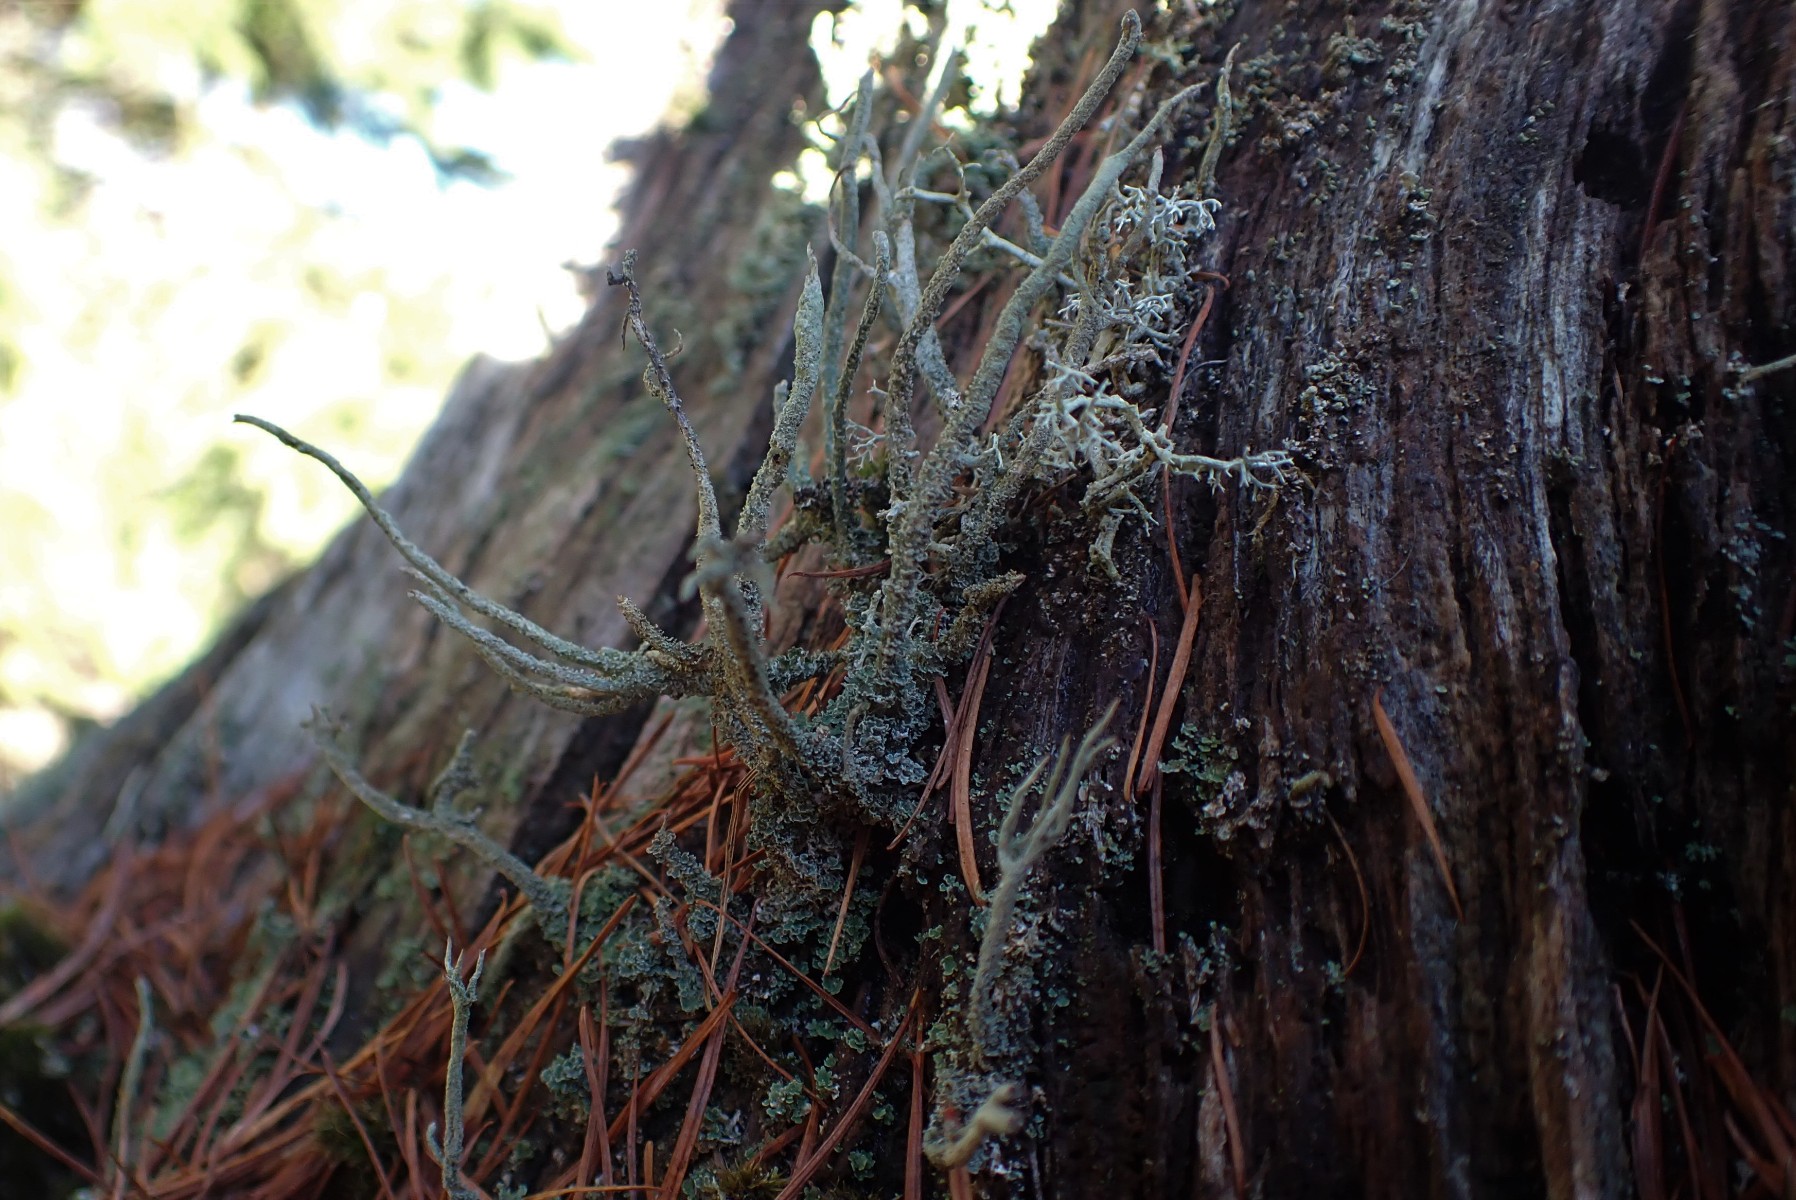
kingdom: Fungi
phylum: Ascomycota
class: Lecanoromycetes
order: Lecanorales
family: Cladoniaceae
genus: Cladonia
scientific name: Cladonia glauca
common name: grågrøn bægerlav
